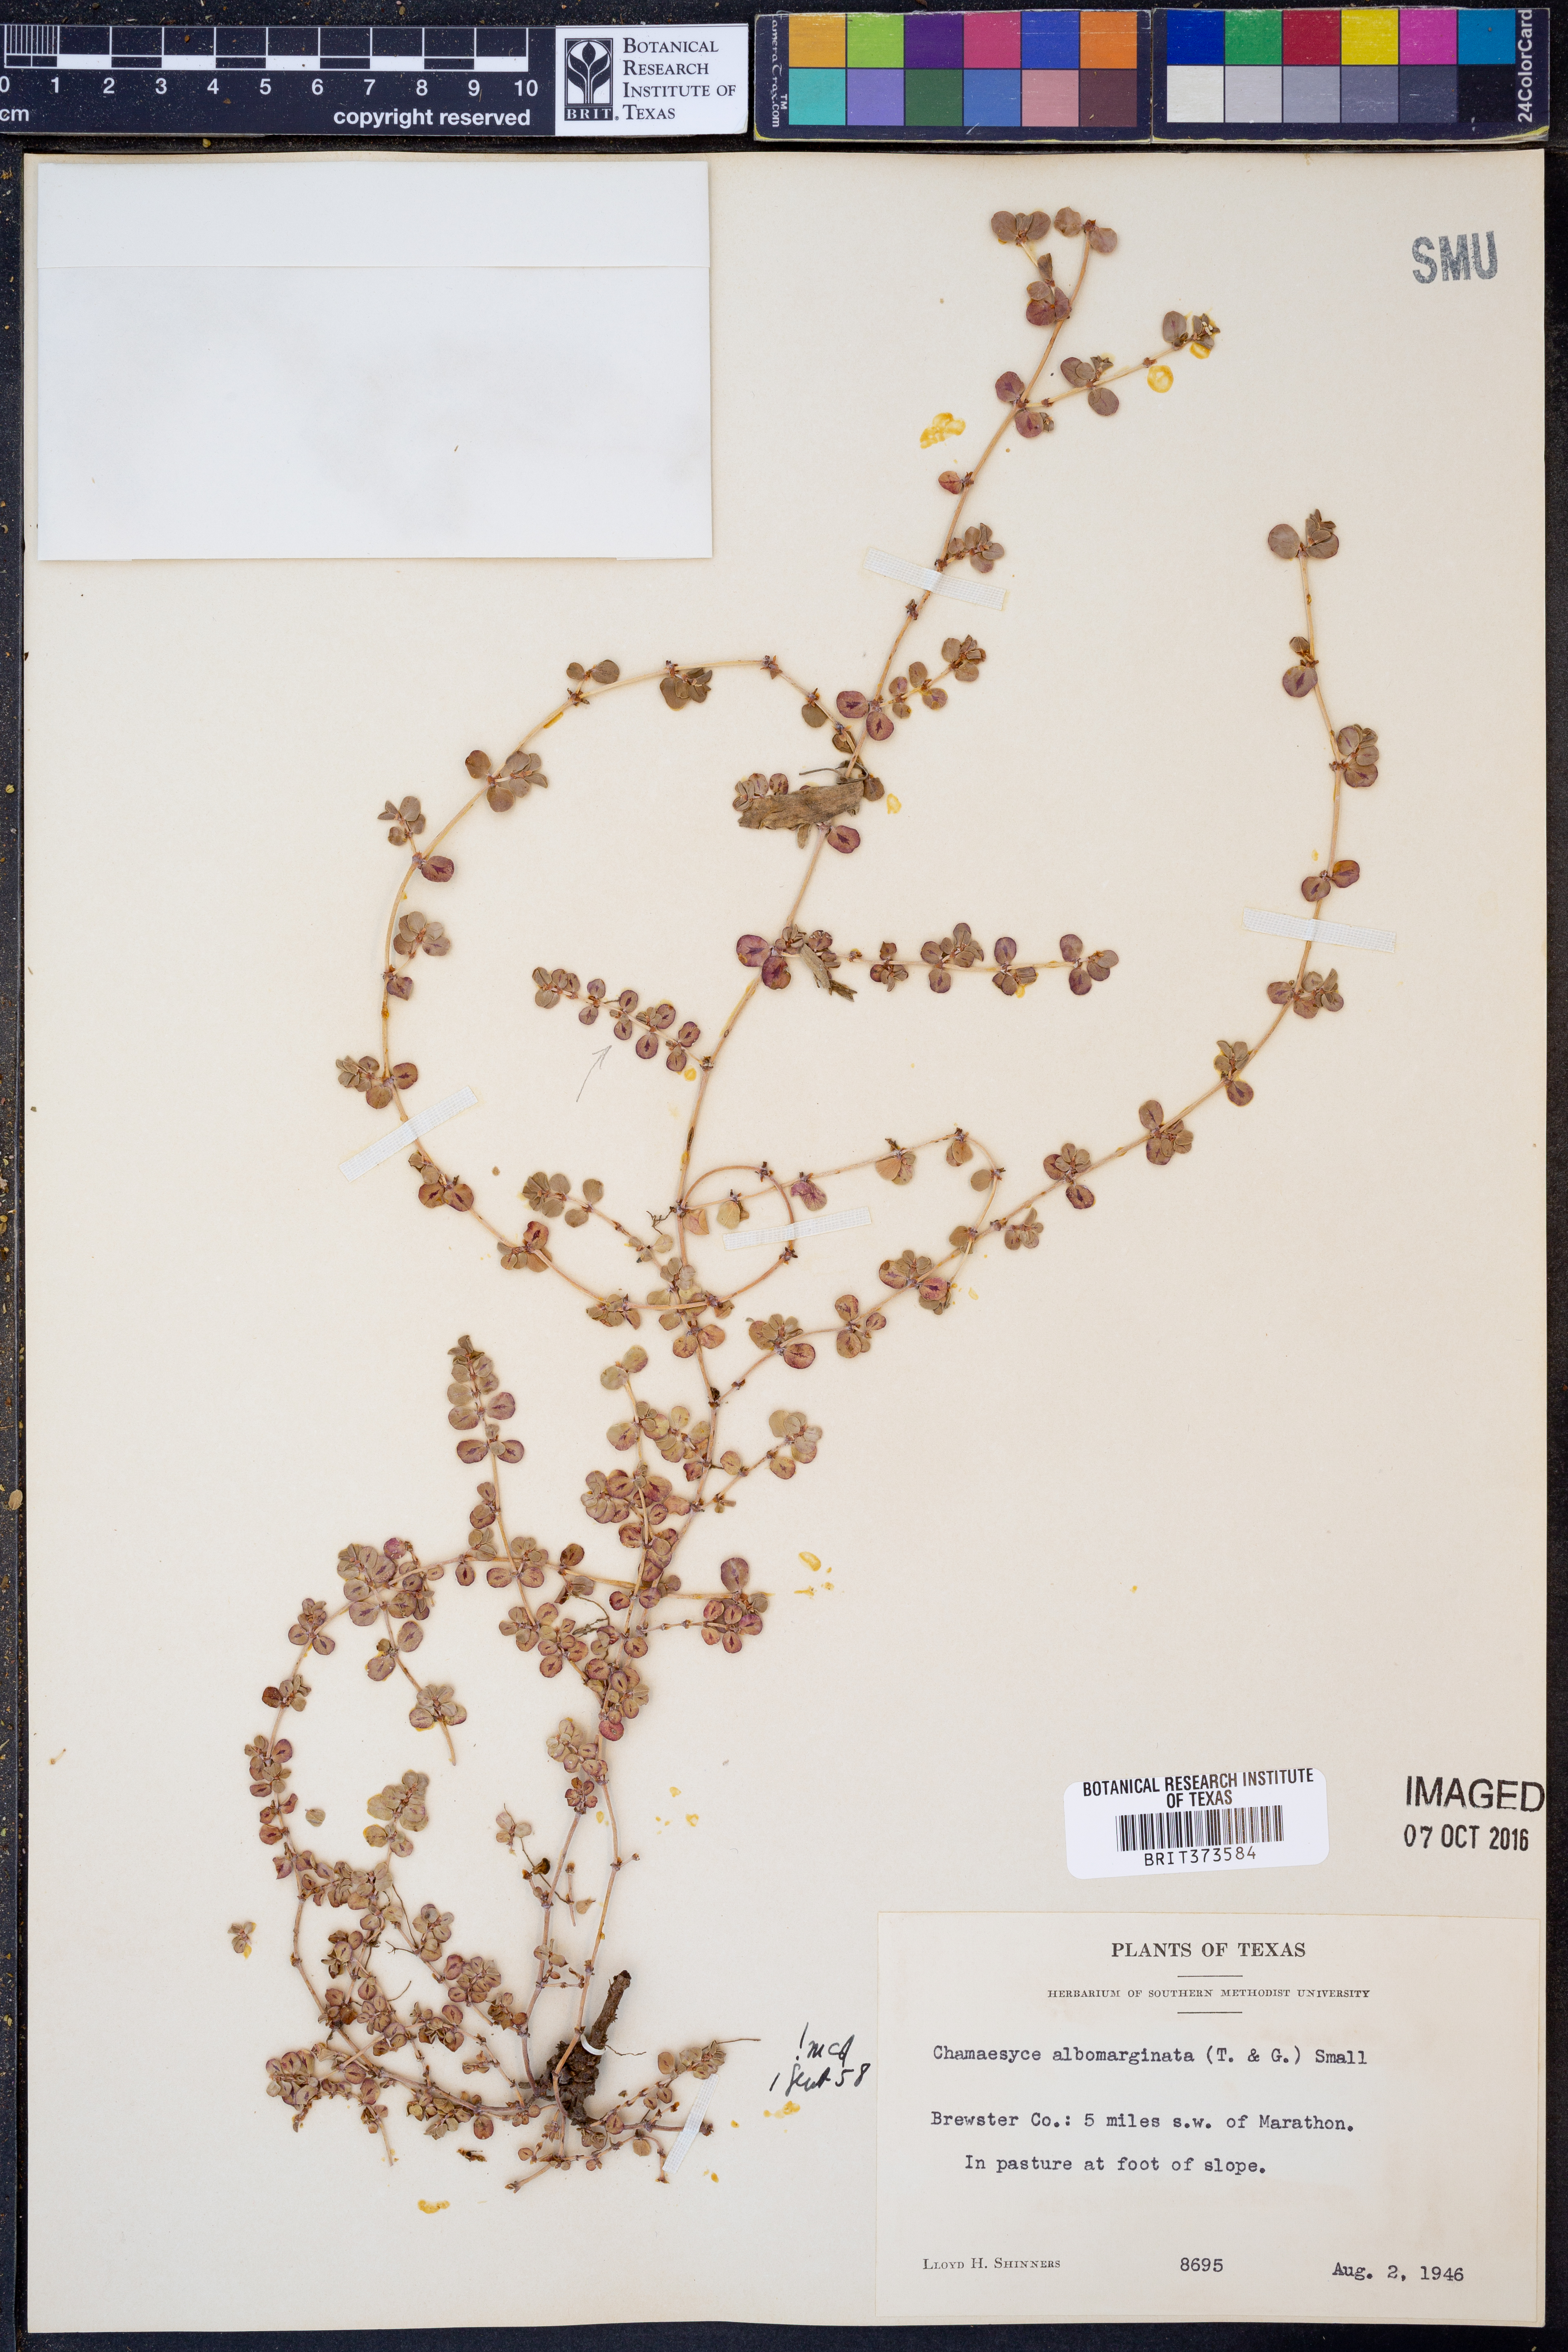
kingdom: Plantae
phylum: Tracheophyta
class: Magnoliopsida
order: Malpighiales
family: Euphorbiaceae
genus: Euphorbia
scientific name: Euphorbia albomarginata
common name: Whitemargin sandmat
